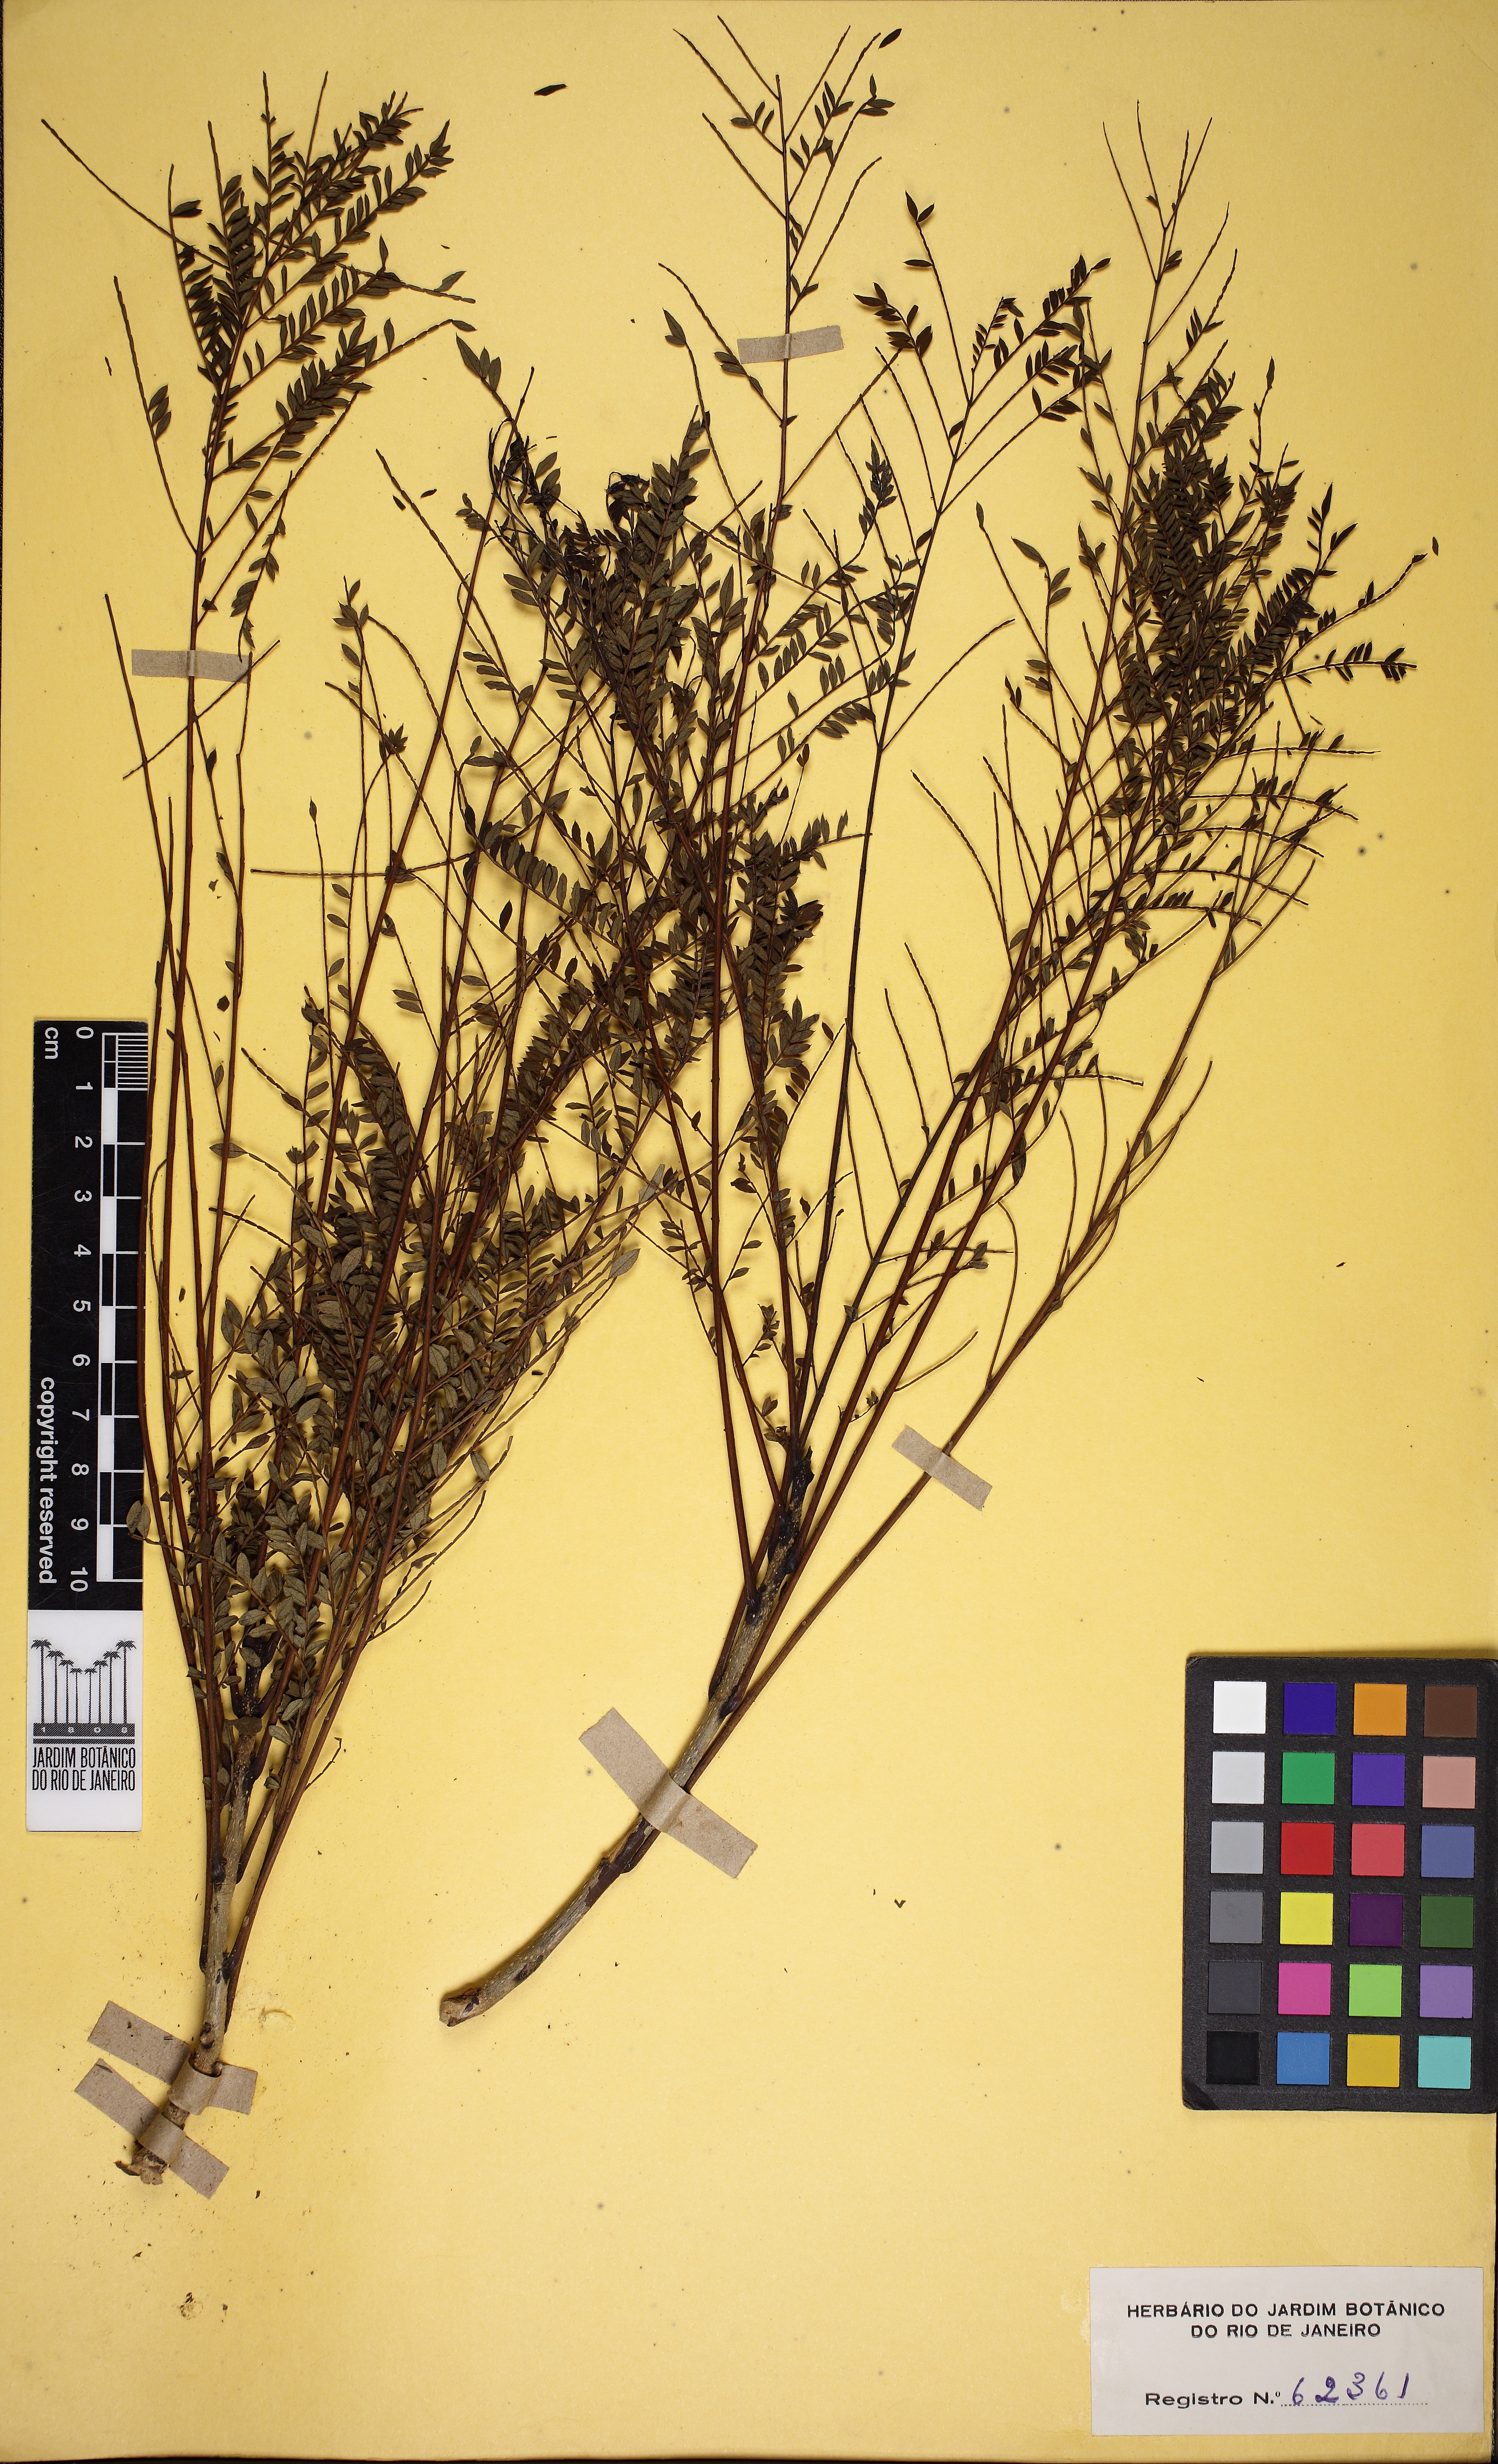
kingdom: Plantae
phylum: Tracheophyta
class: Magnoliopsida
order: Lamiales
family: Bignoniaceae
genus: Jacaranda
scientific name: Jacaranda acutifolia
